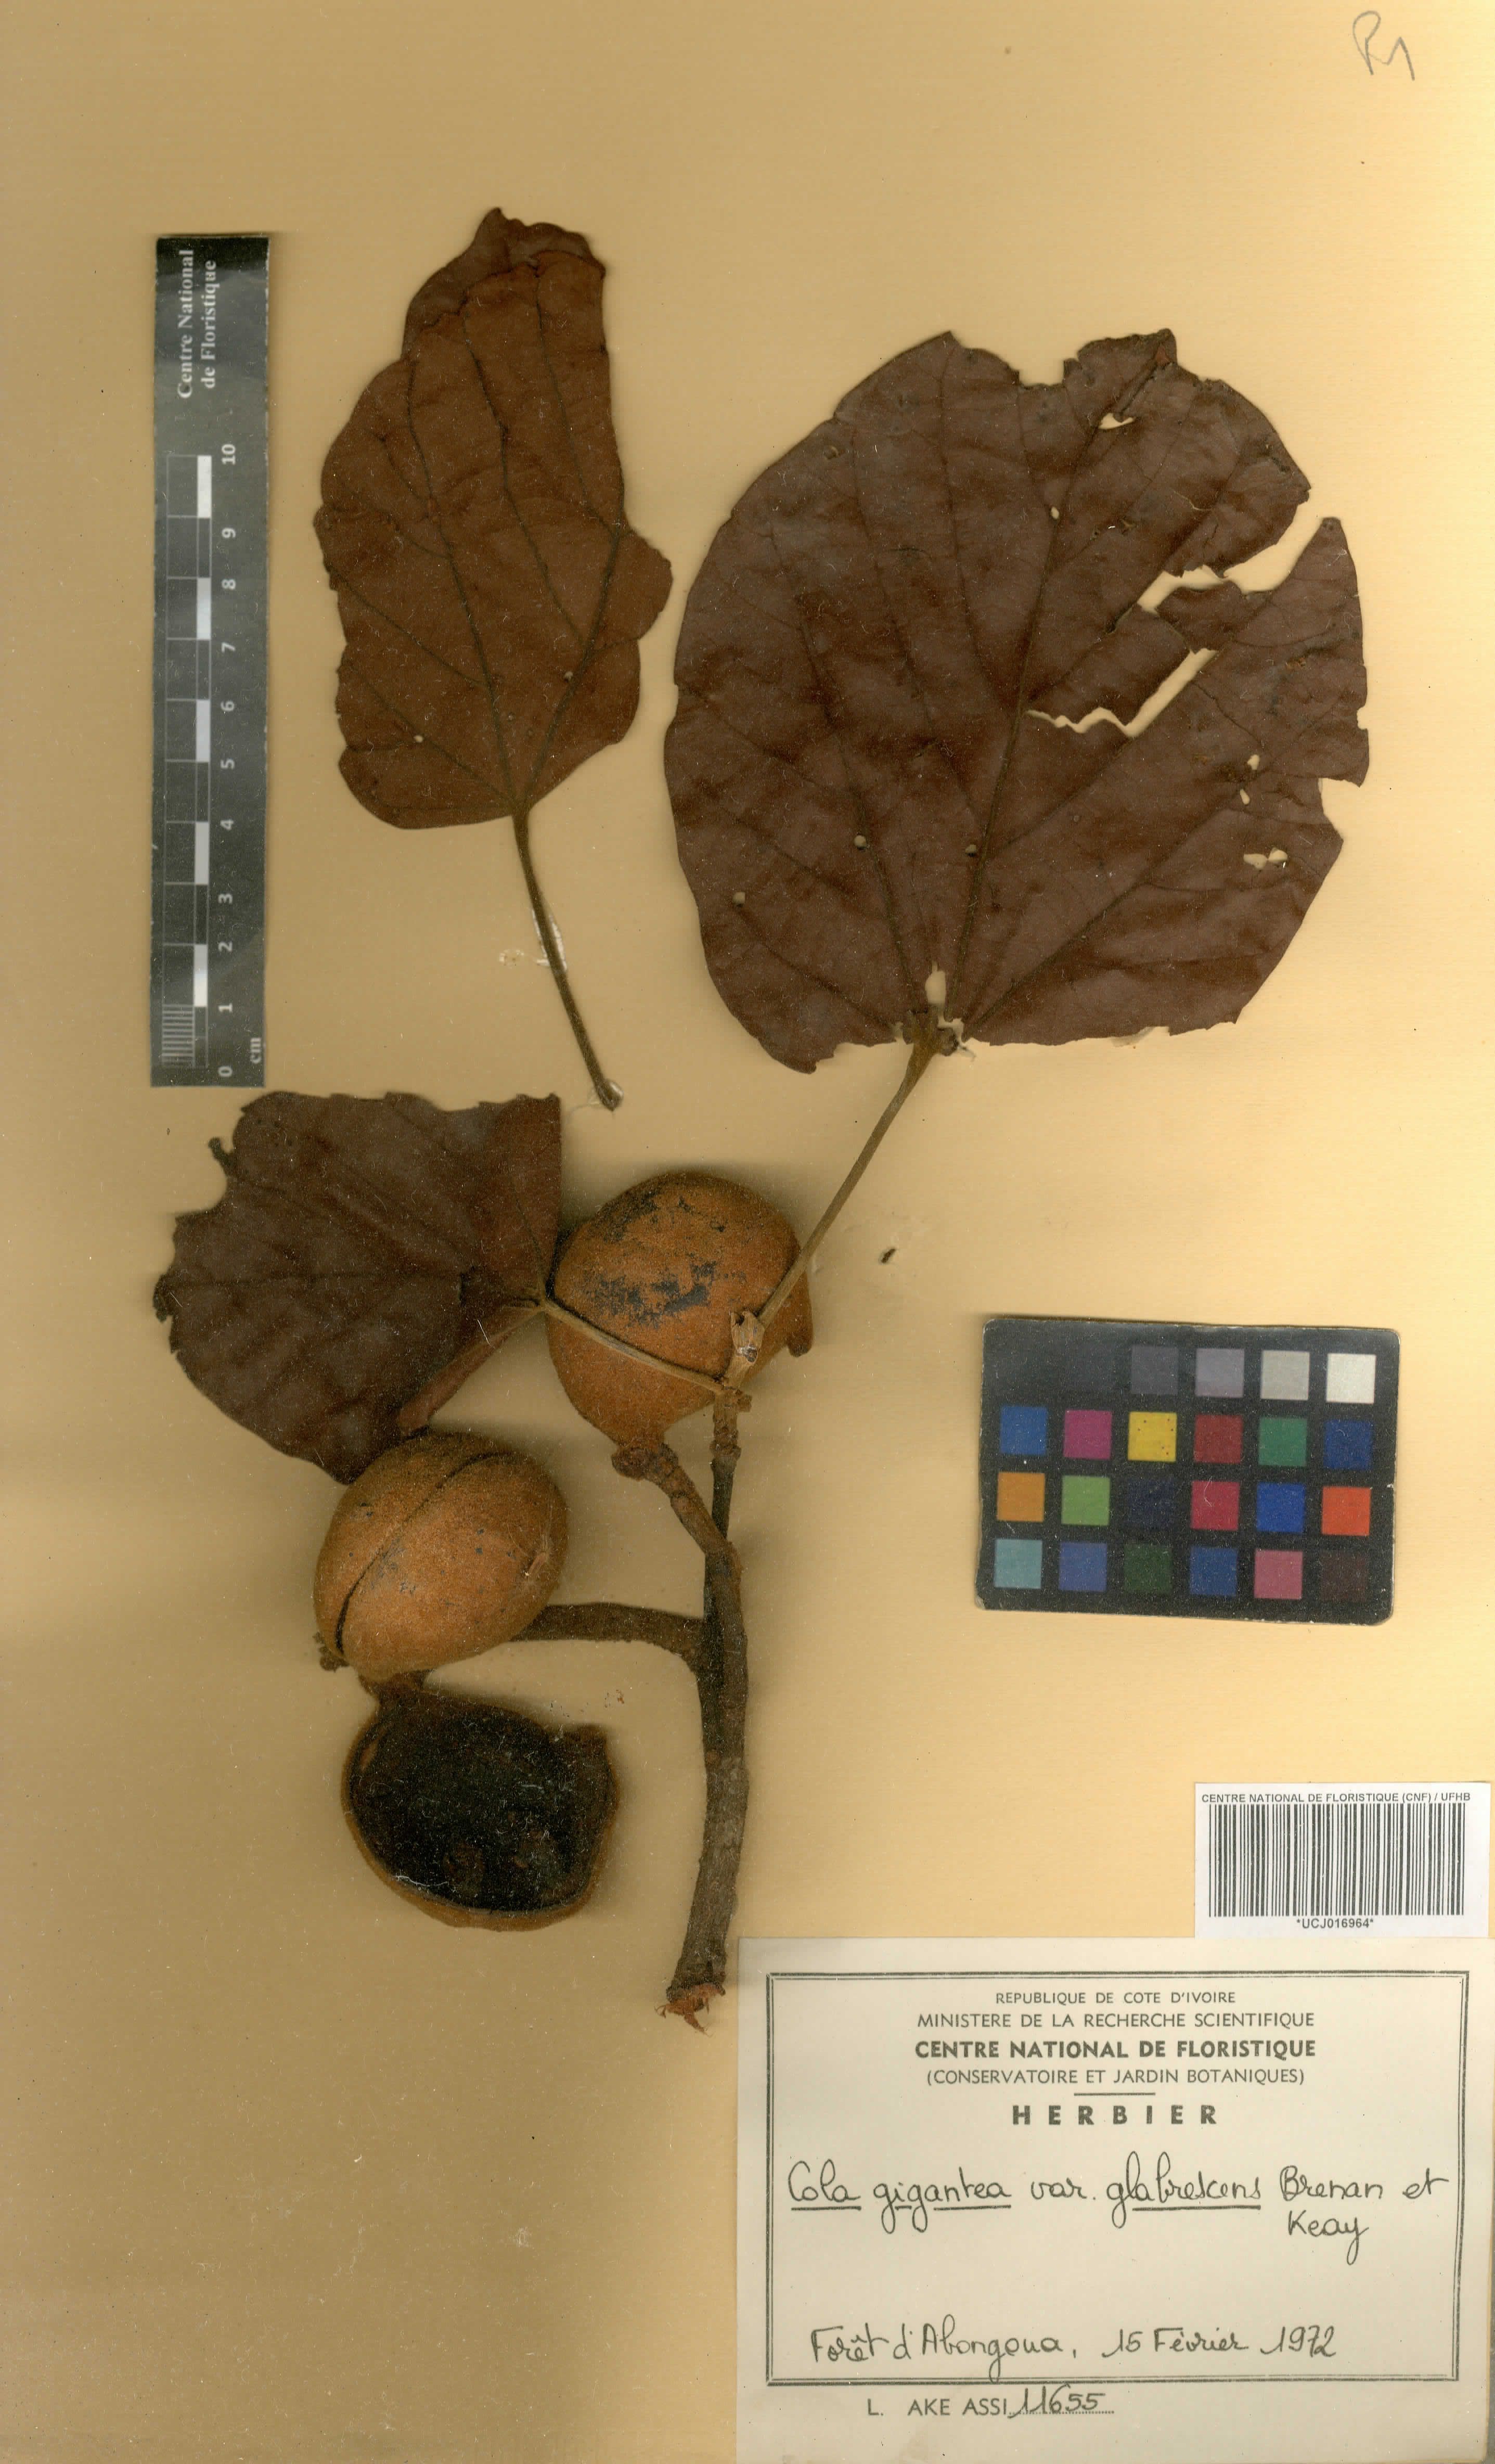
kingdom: Plantae
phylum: Tracheophyta
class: Magnoliopsida
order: Malvales
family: Malvaceae
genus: Cola
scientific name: Cola gigantea
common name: Giant cola
